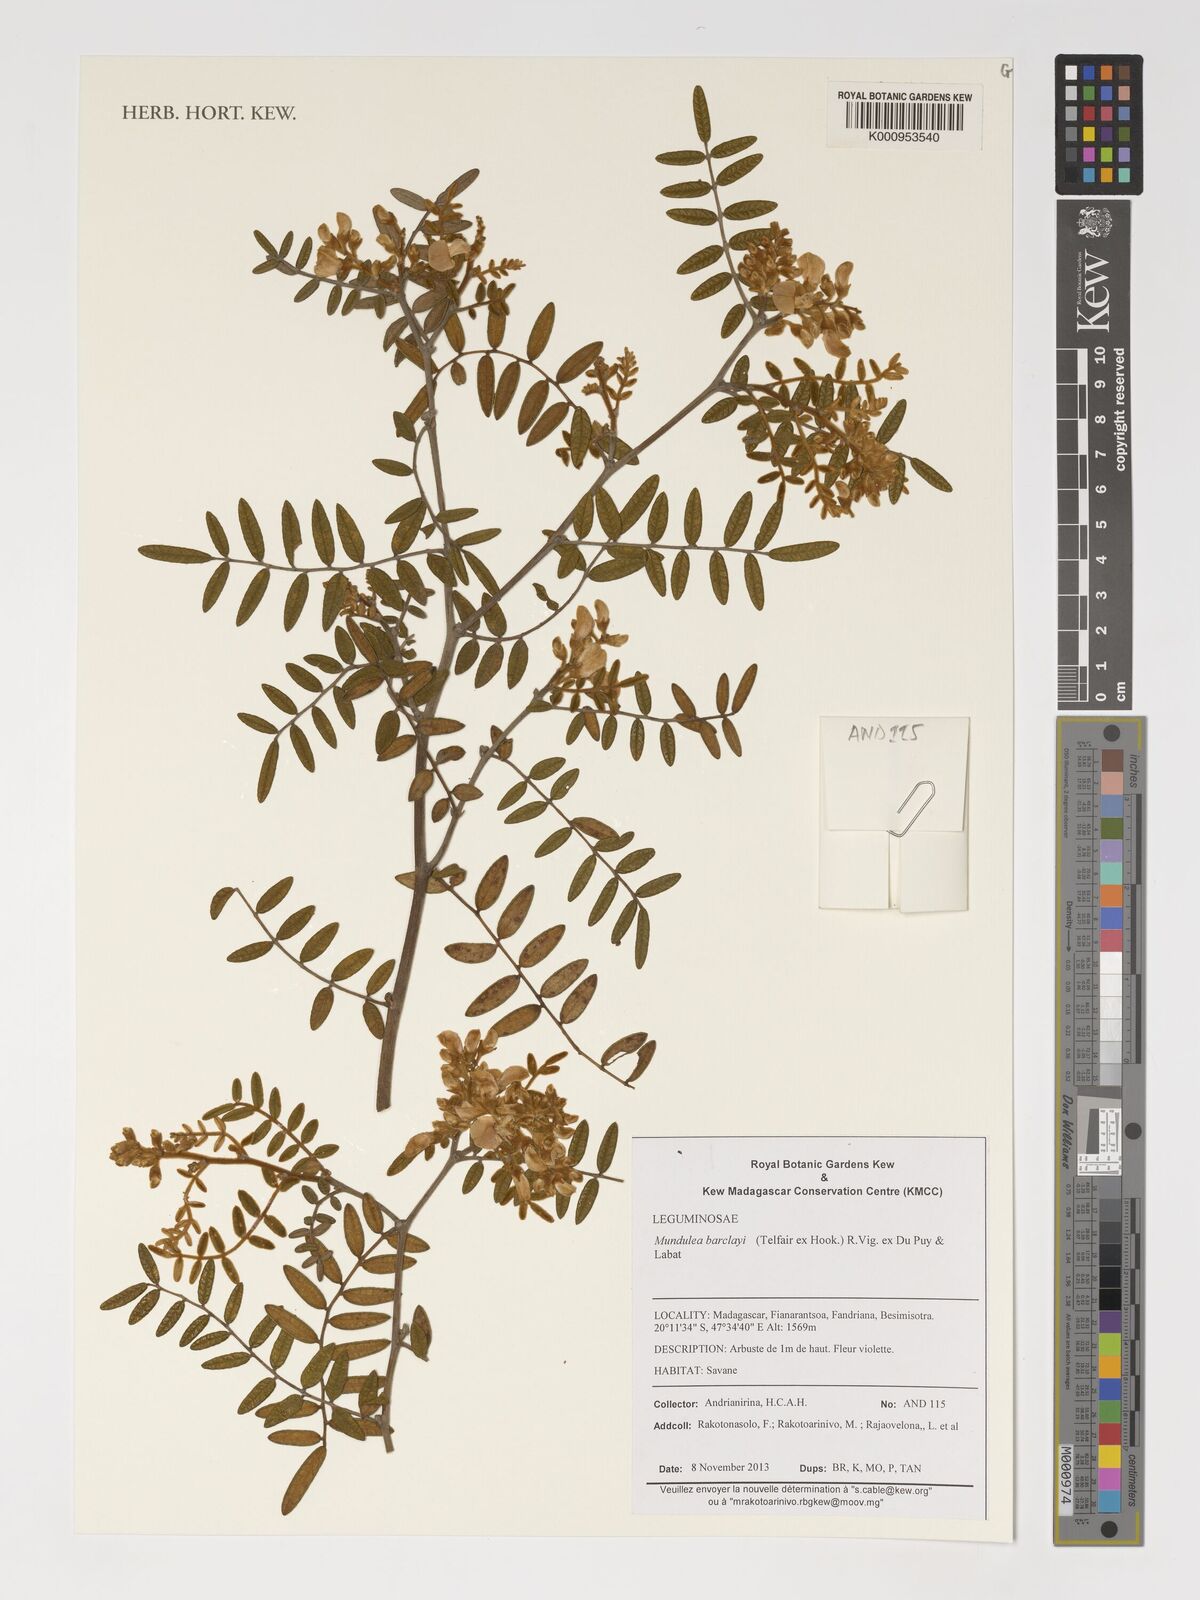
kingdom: Plantae
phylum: Tracheophyta
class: Magnoliopsida
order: Fabales
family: Fabaceae
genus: Mundulea
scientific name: Mundulea barclayi
